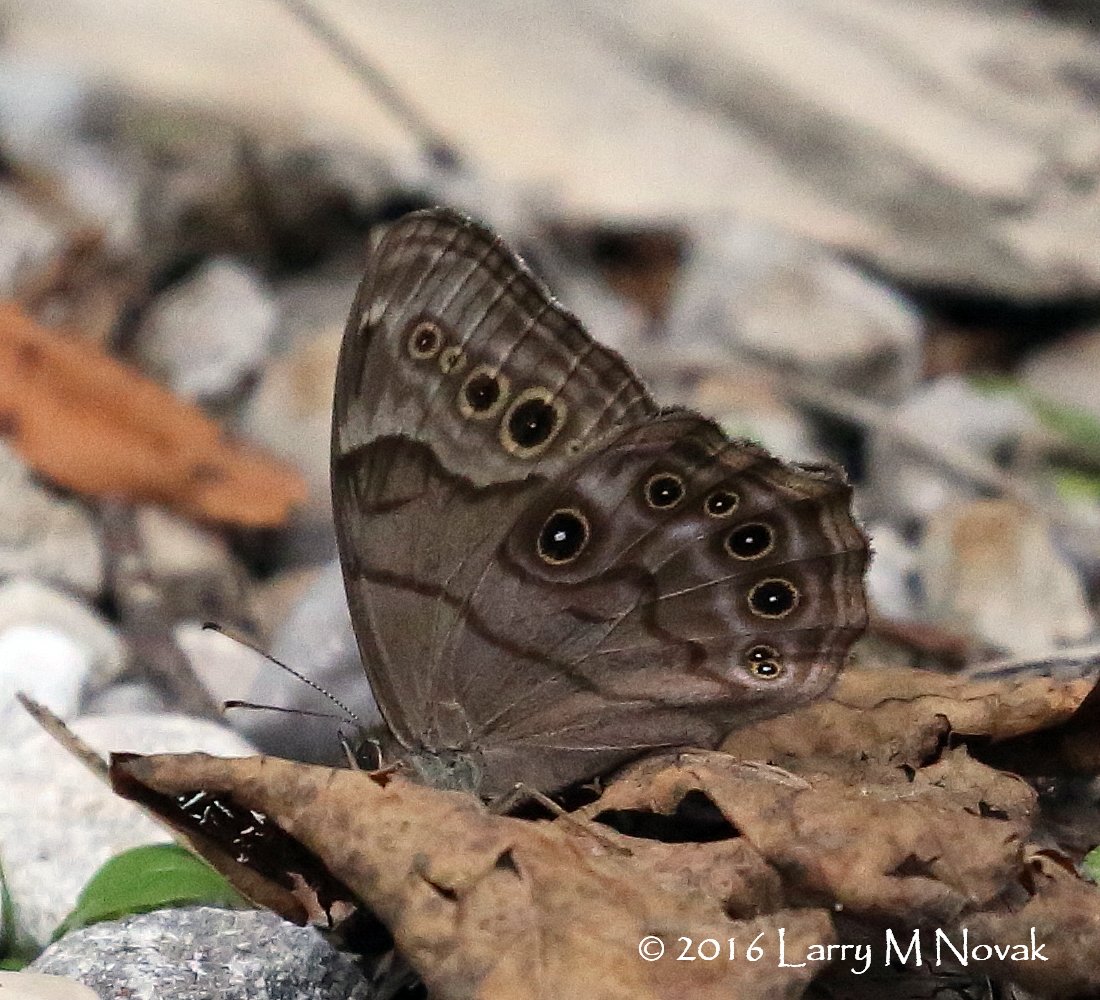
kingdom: Animalia
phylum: Arthropoda
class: Insecta
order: Lepidoptera
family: Nymphalidae
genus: Lethe
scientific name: Lethe anthedon
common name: Northern Pearly-Eye
